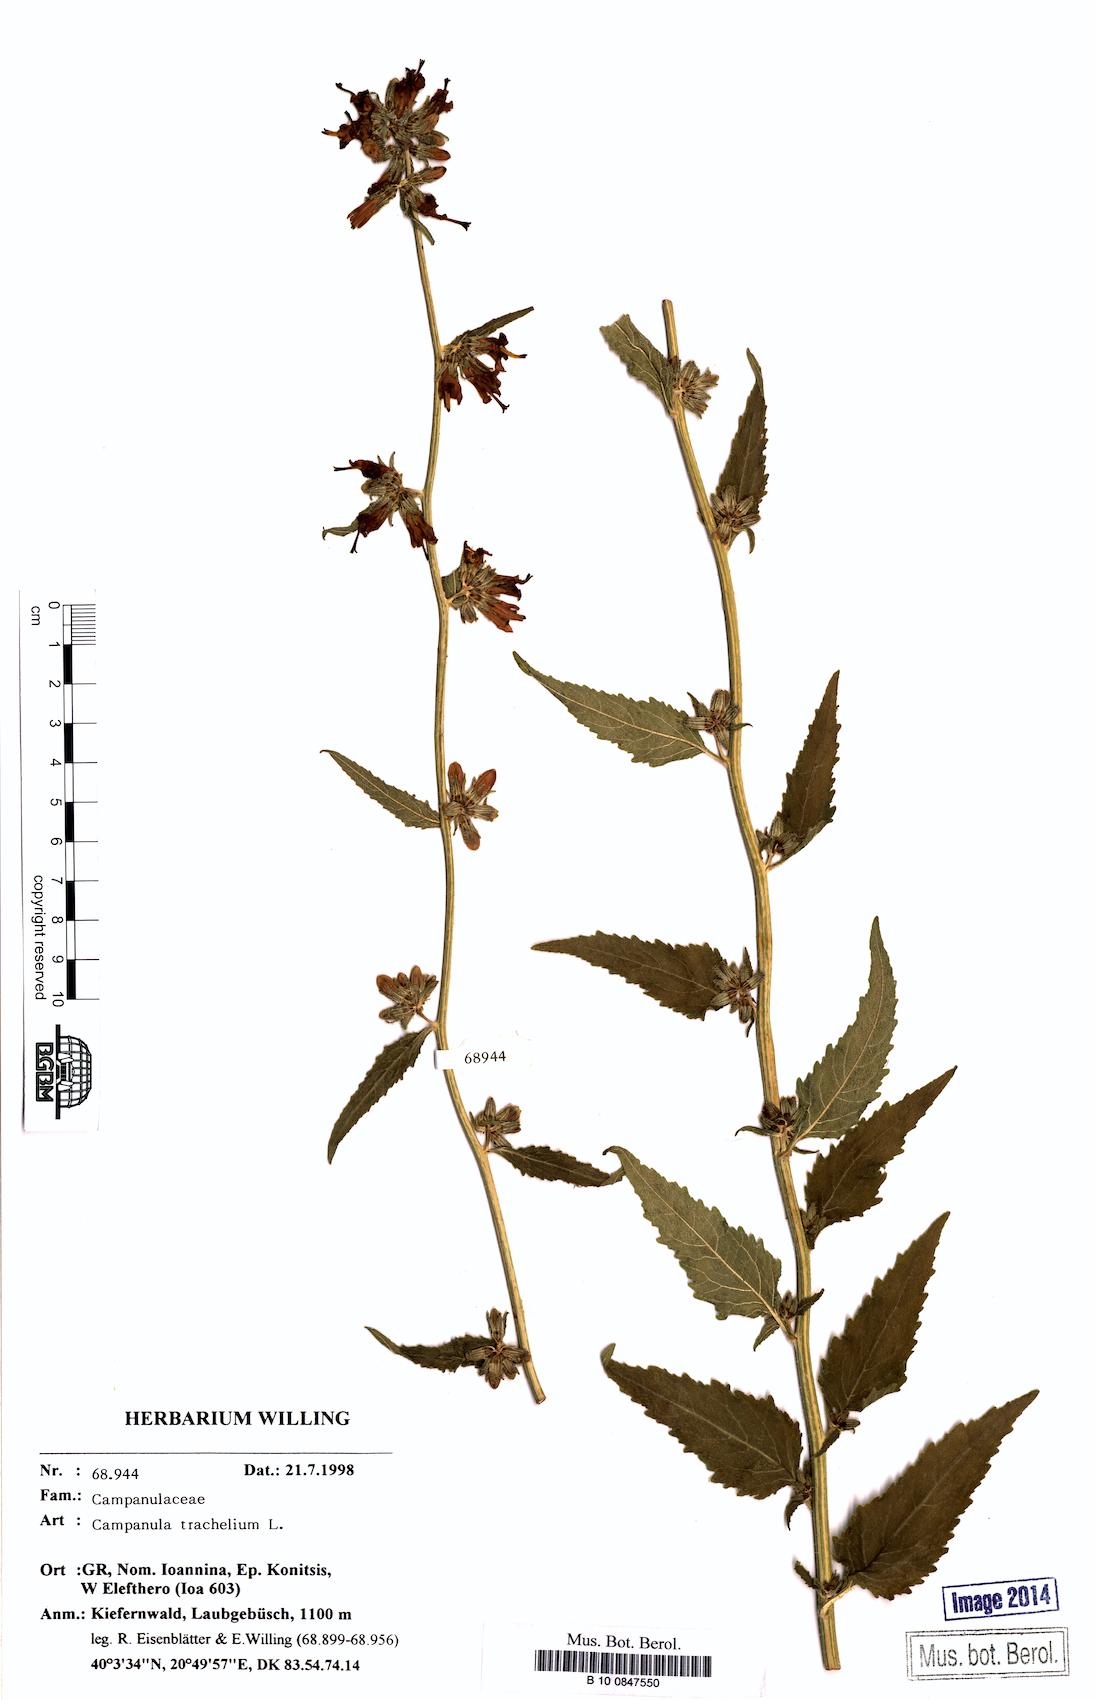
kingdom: Plantae
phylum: Tracheophyta
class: Magnoliopsida
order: Asterales
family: Campanulaceae
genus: Campanula
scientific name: Campanula trachelium
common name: Nettle-leaved bellflower
